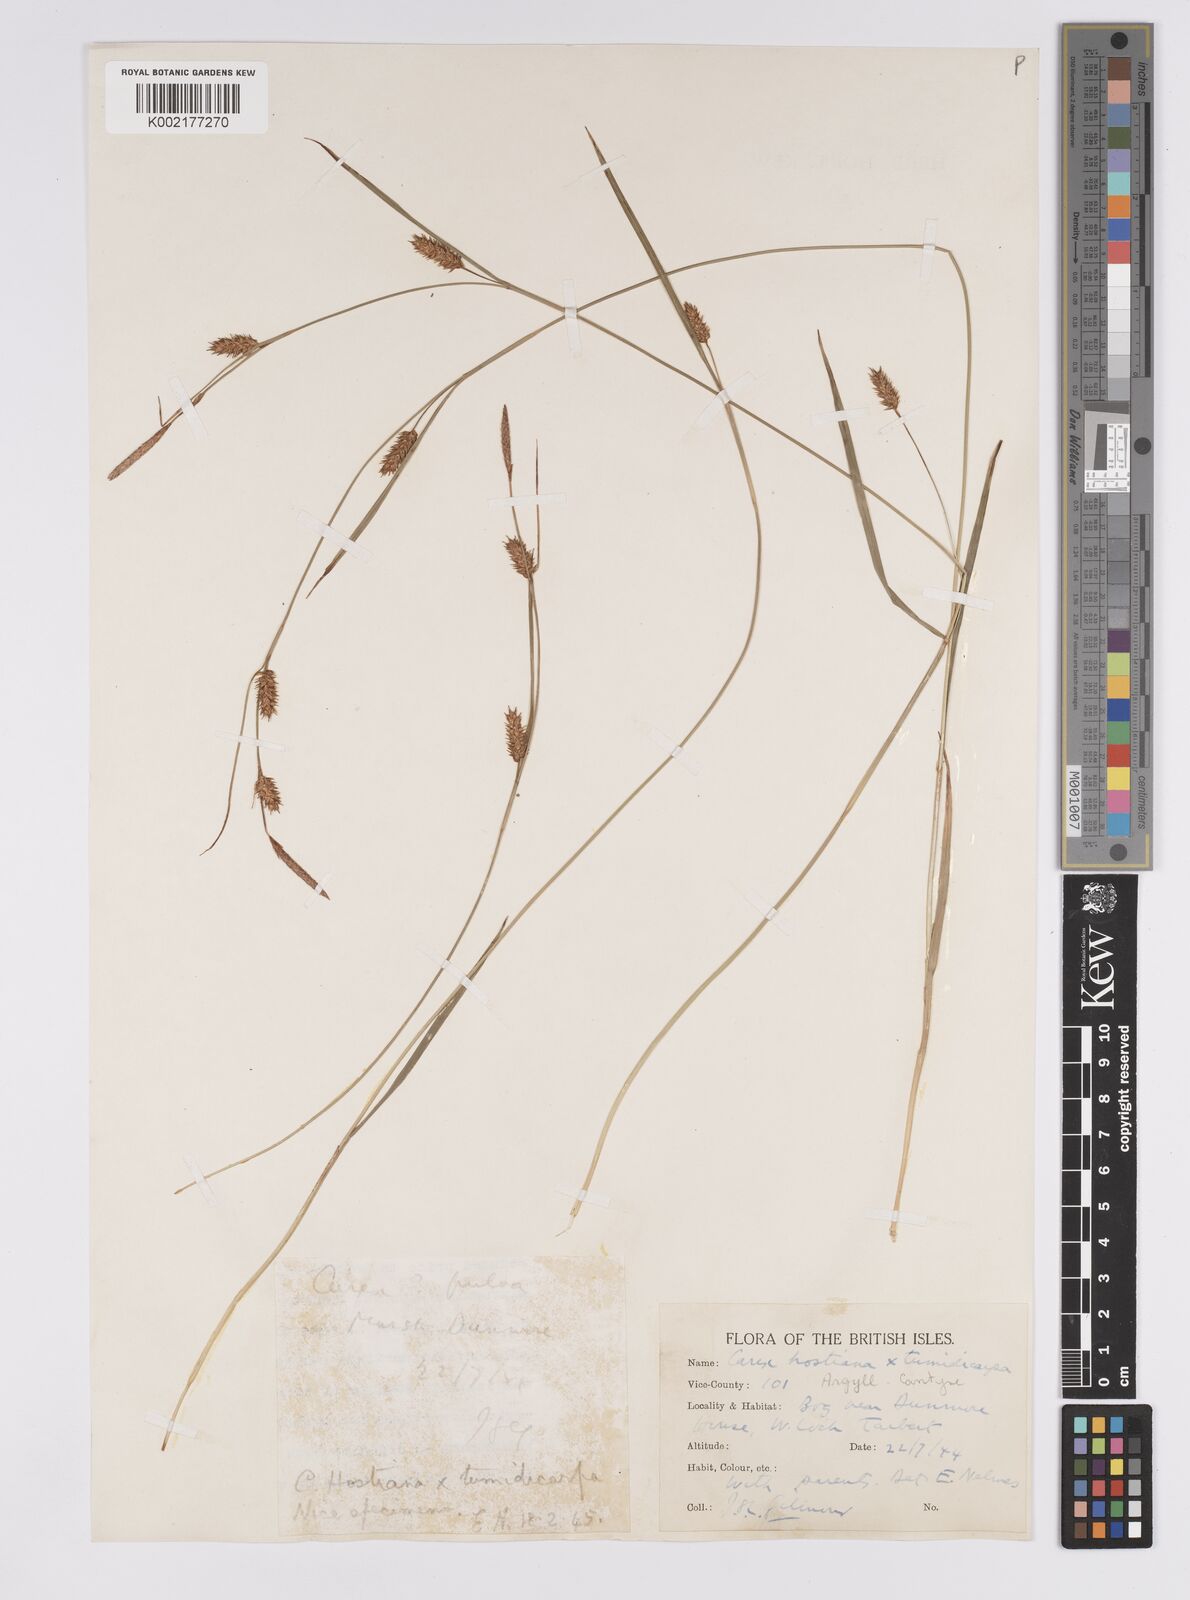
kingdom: Plantae
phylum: Tracheophyta
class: Liliopsida
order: Poales
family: Cyperaceae
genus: Carex
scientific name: Carex hostiana
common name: Tawny sedge
